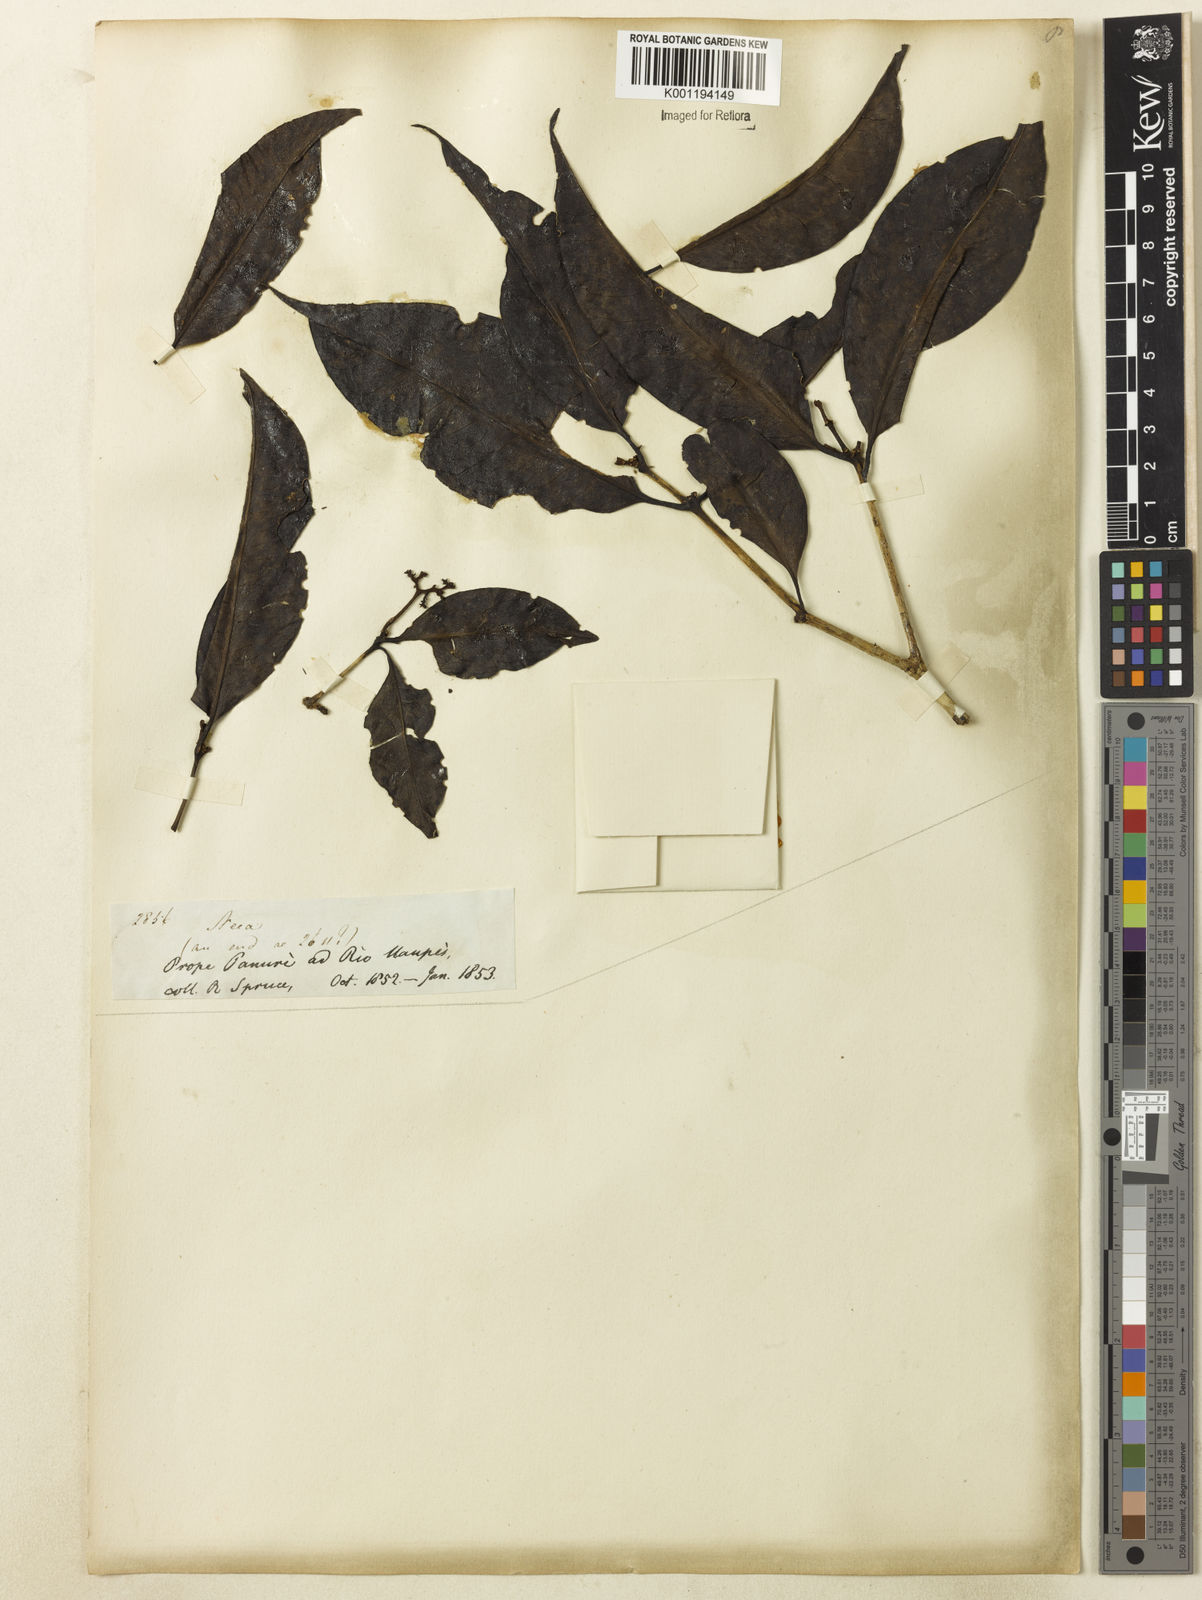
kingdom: Plantae
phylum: Tracheophyta
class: Magnoliopsida
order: Caryophyllales
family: Nyctaginaceae
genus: Neea
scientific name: Neea constricta
